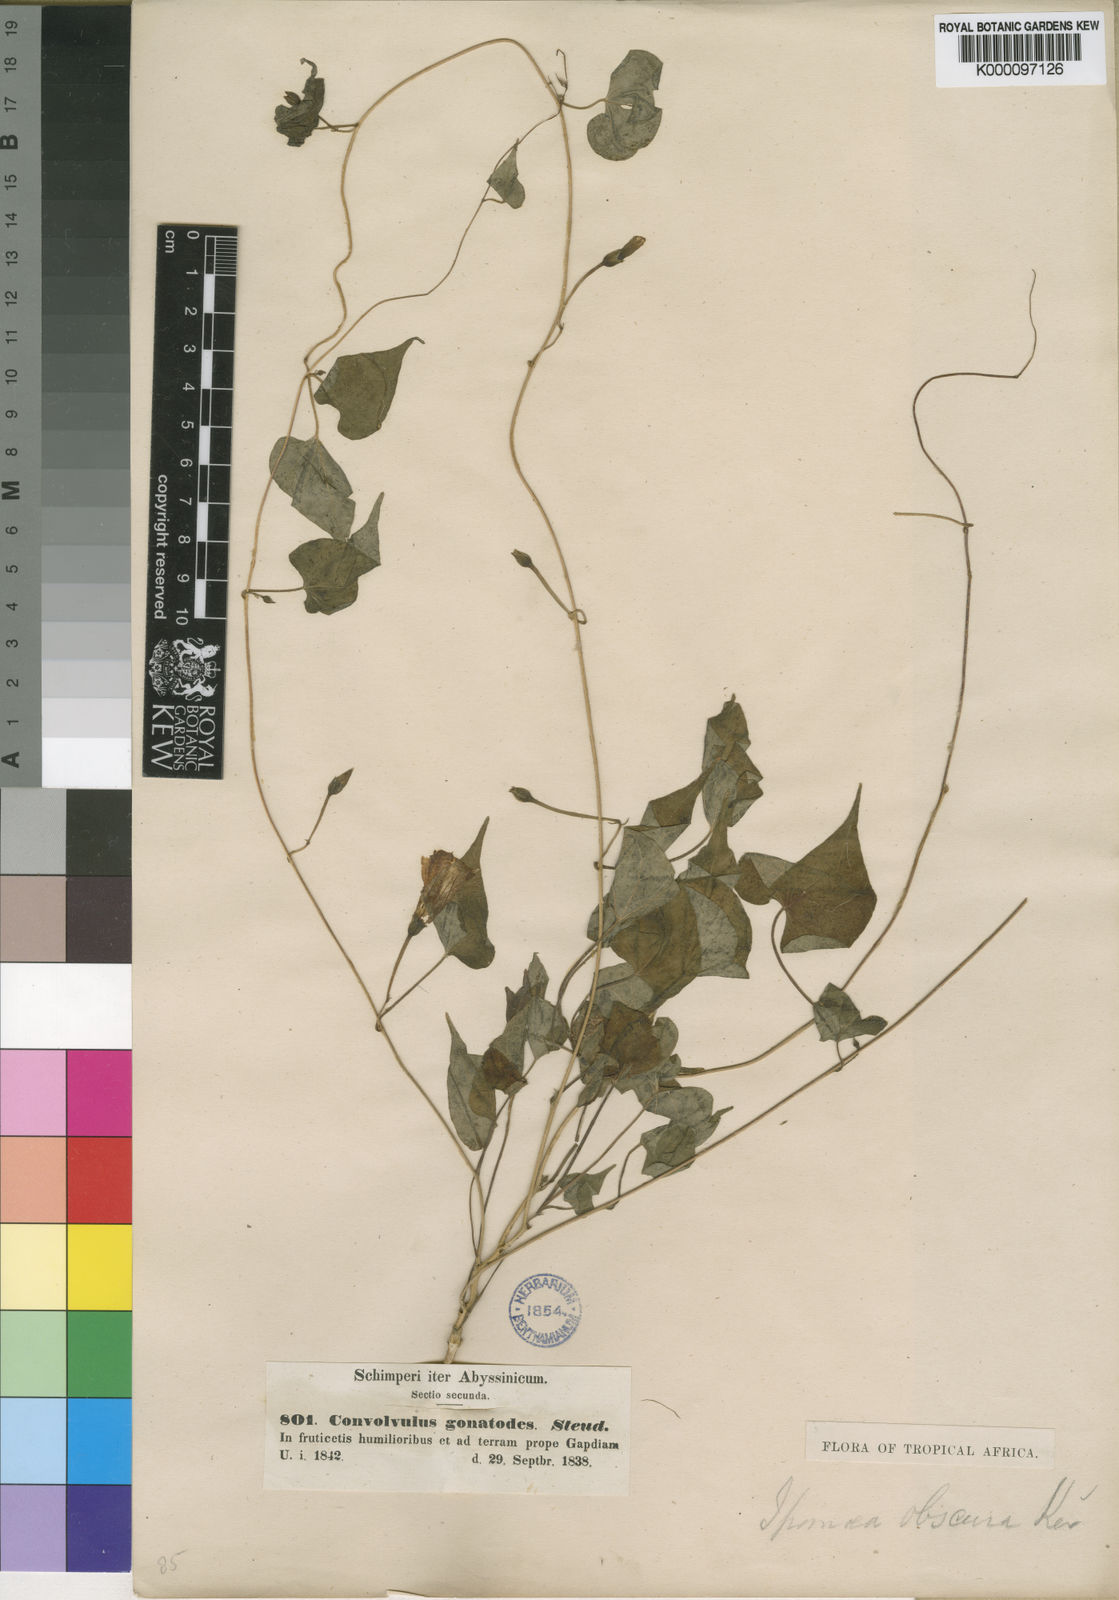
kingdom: Plantae
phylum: Tracheophyta
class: Magnoliopsida
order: Solanales
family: Convolvulaceae
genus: Ipomoea
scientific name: Ipomoea
